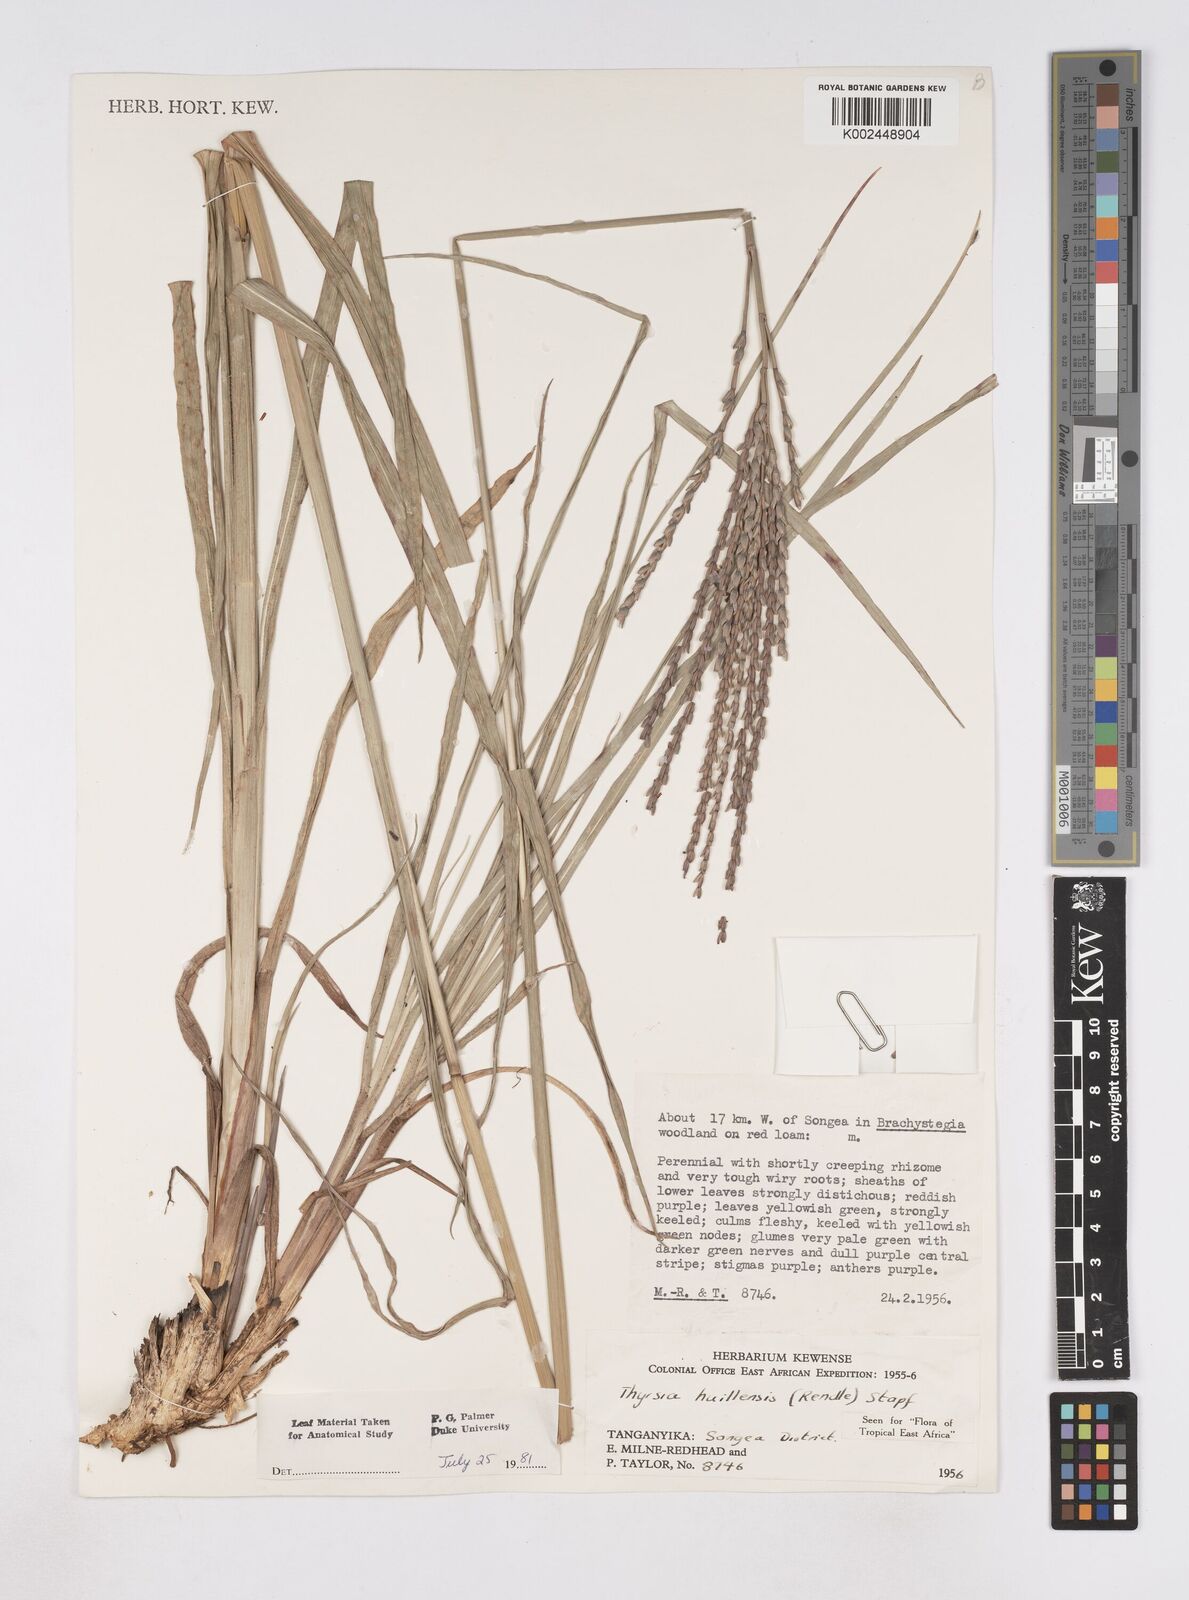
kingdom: Plantae
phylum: Tracheophyta
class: Liliopsida
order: Poales
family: Poaceae
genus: Thyrsia
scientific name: Thyrsia huillensis
